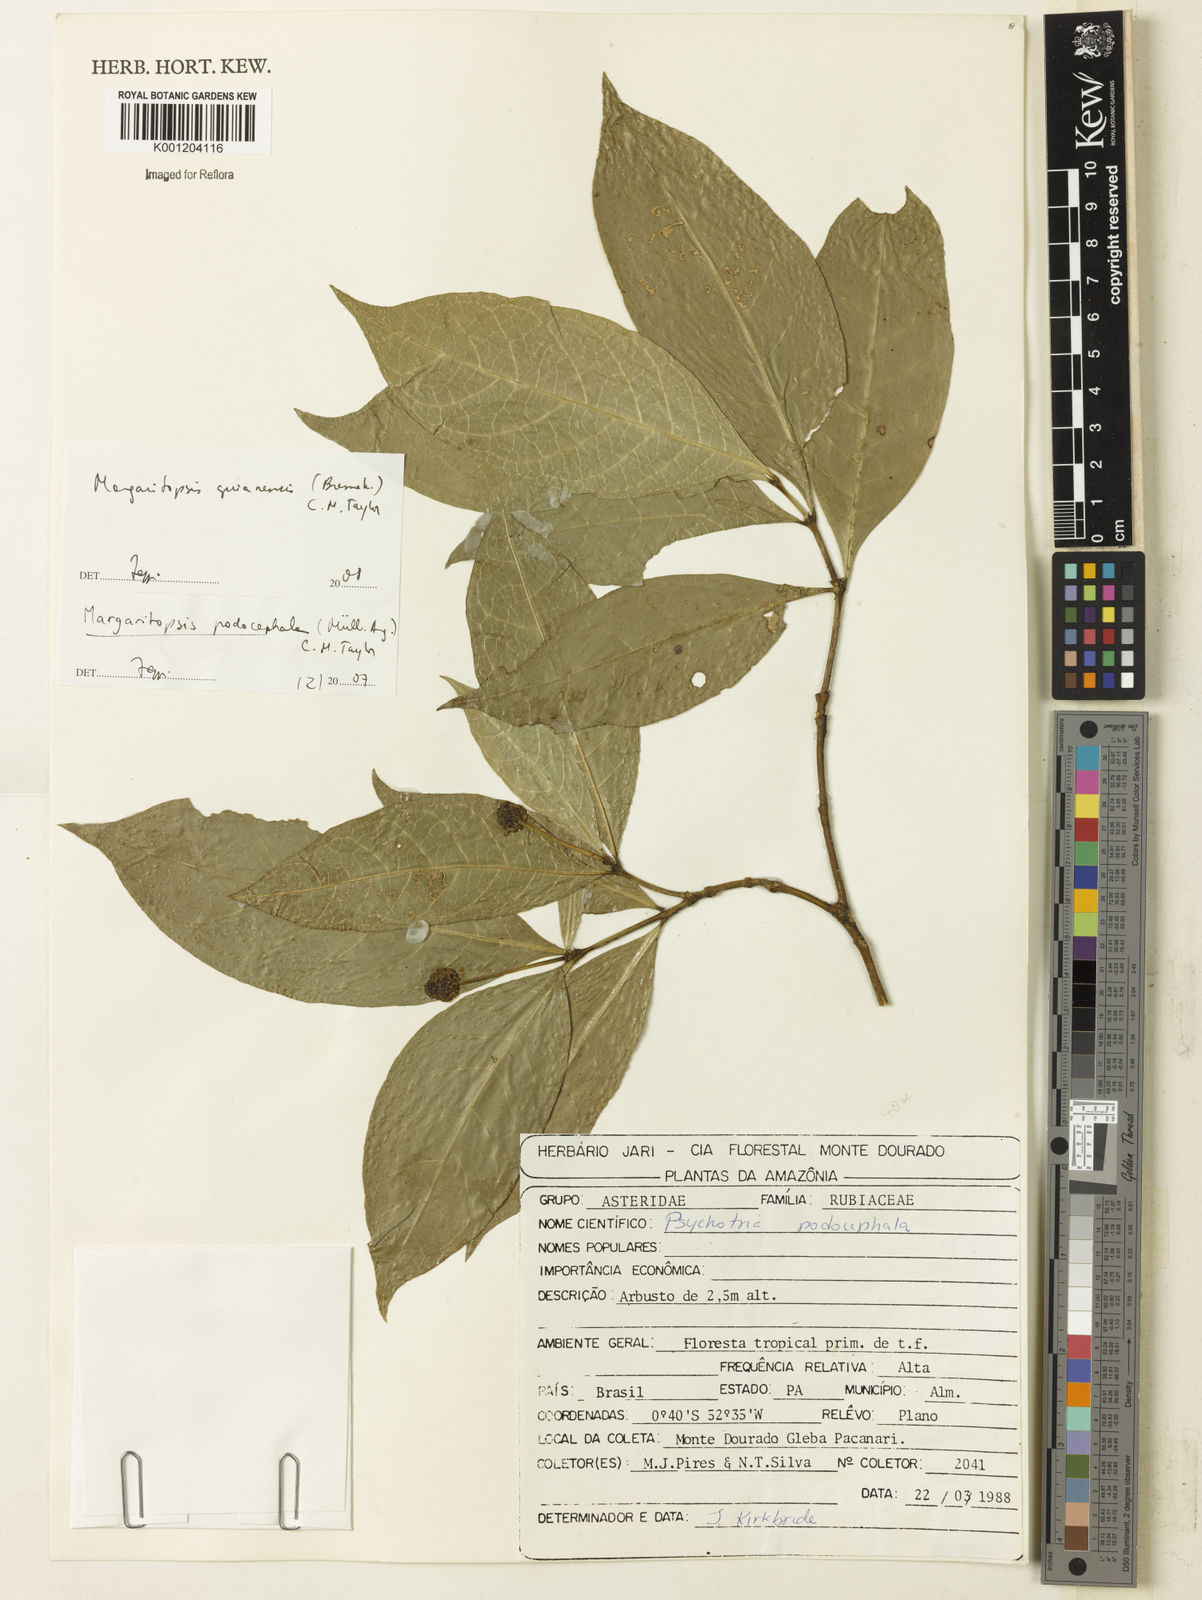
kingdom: Plantae
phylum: Tracheophyta
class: Magnoliopsida
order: Gentianales
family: Rubiaceae
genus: Eumachia
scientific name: Eumachia guianensis
